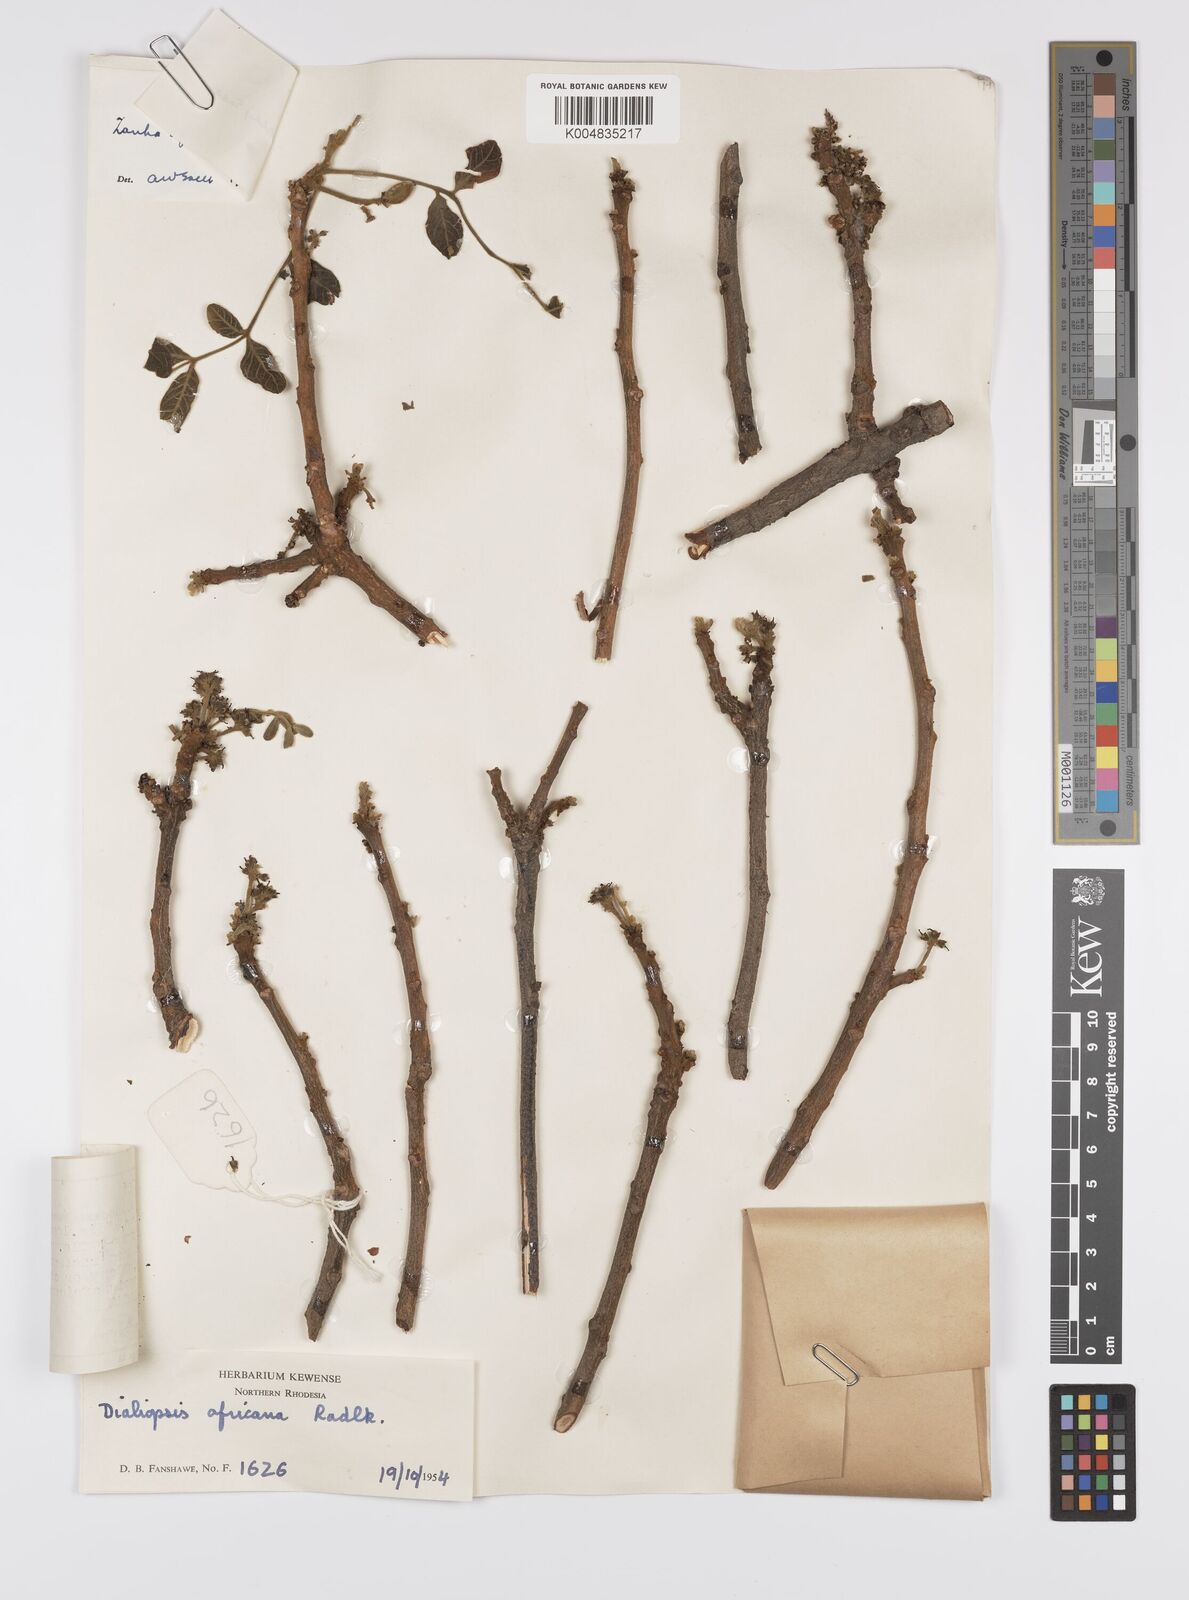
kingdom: Plantae
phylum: Tracheophyta
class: Magnoliopsida
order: Sapindales
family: Sapindaceae
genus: Zanha
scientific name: Zanha africana
